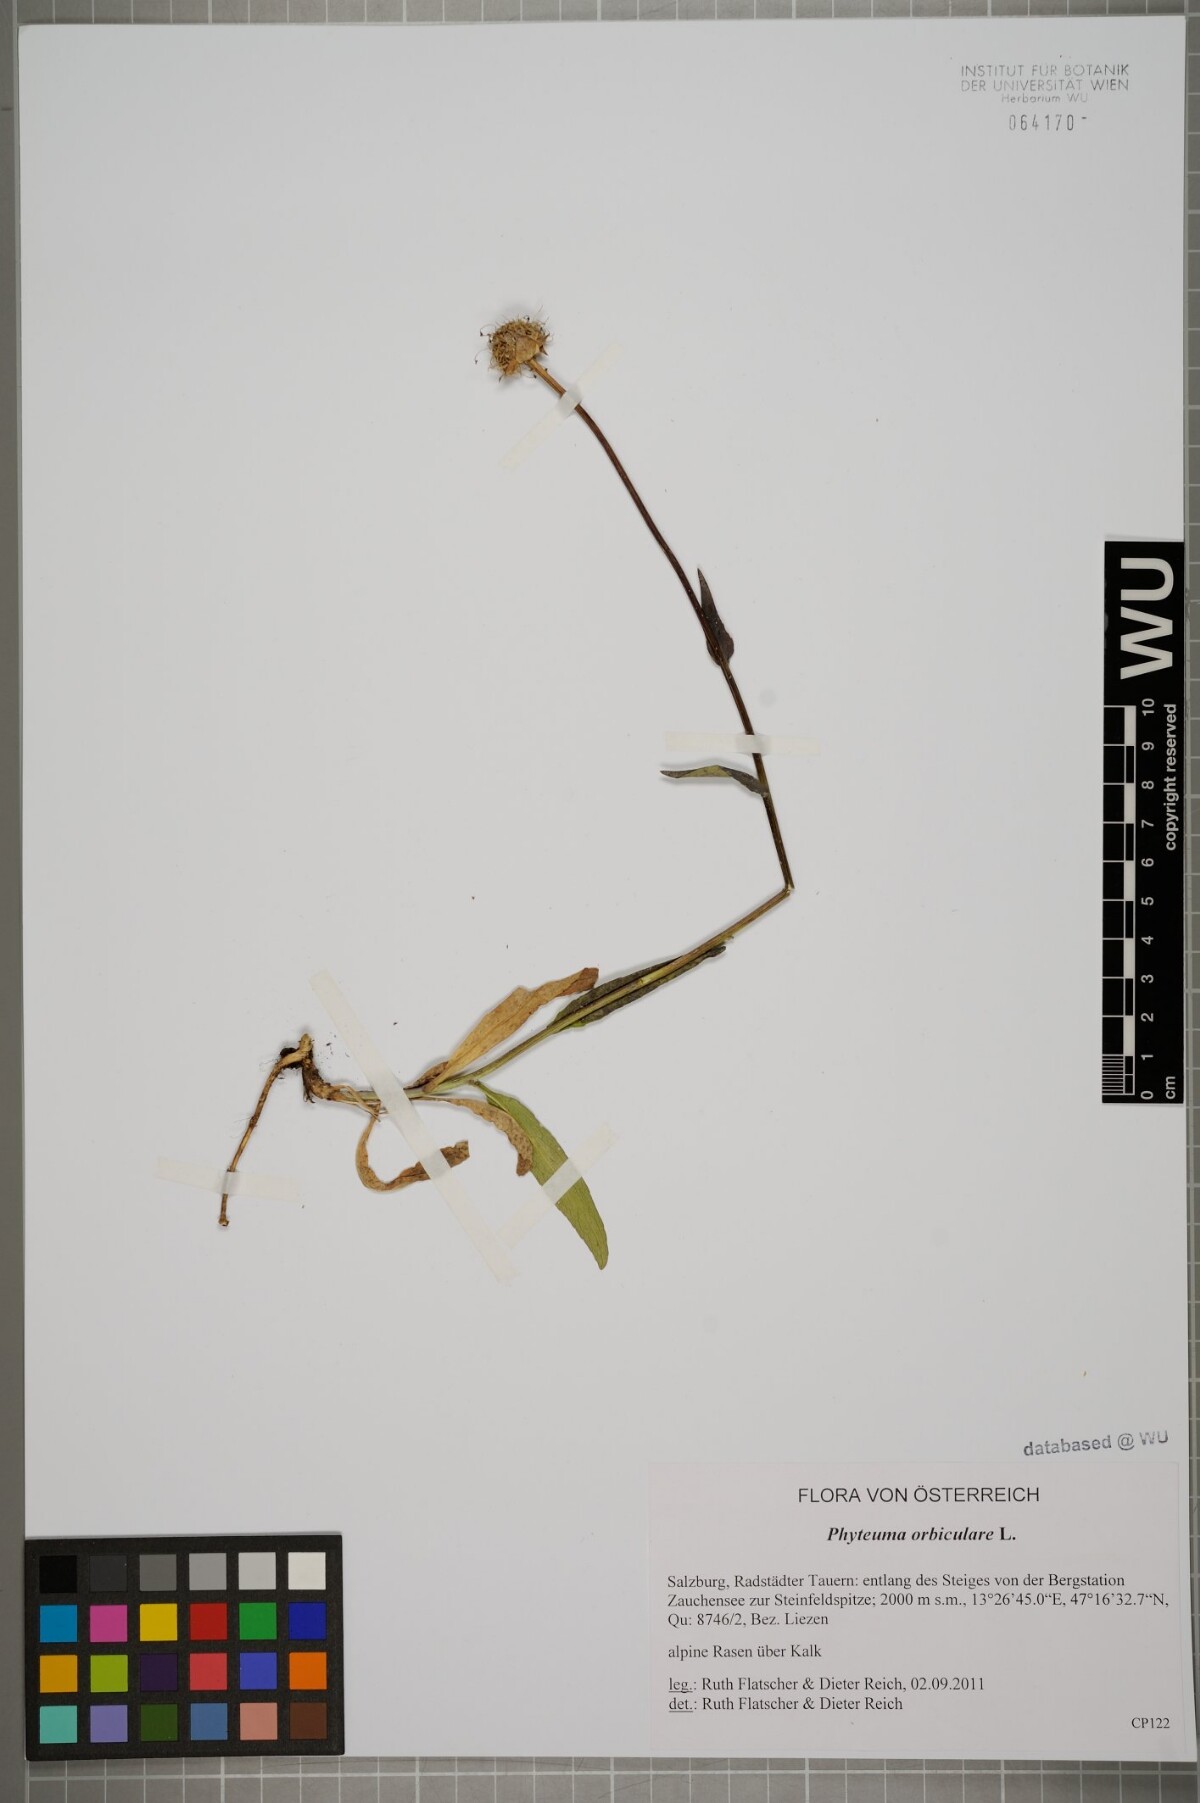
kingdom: Plantae
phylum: Tracheophyta
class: Magnoliopsida
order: Asterales
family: Campanulaceae
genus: Phyteuma
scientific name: Phyteuma orbiculare
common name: Round-headed rampion
